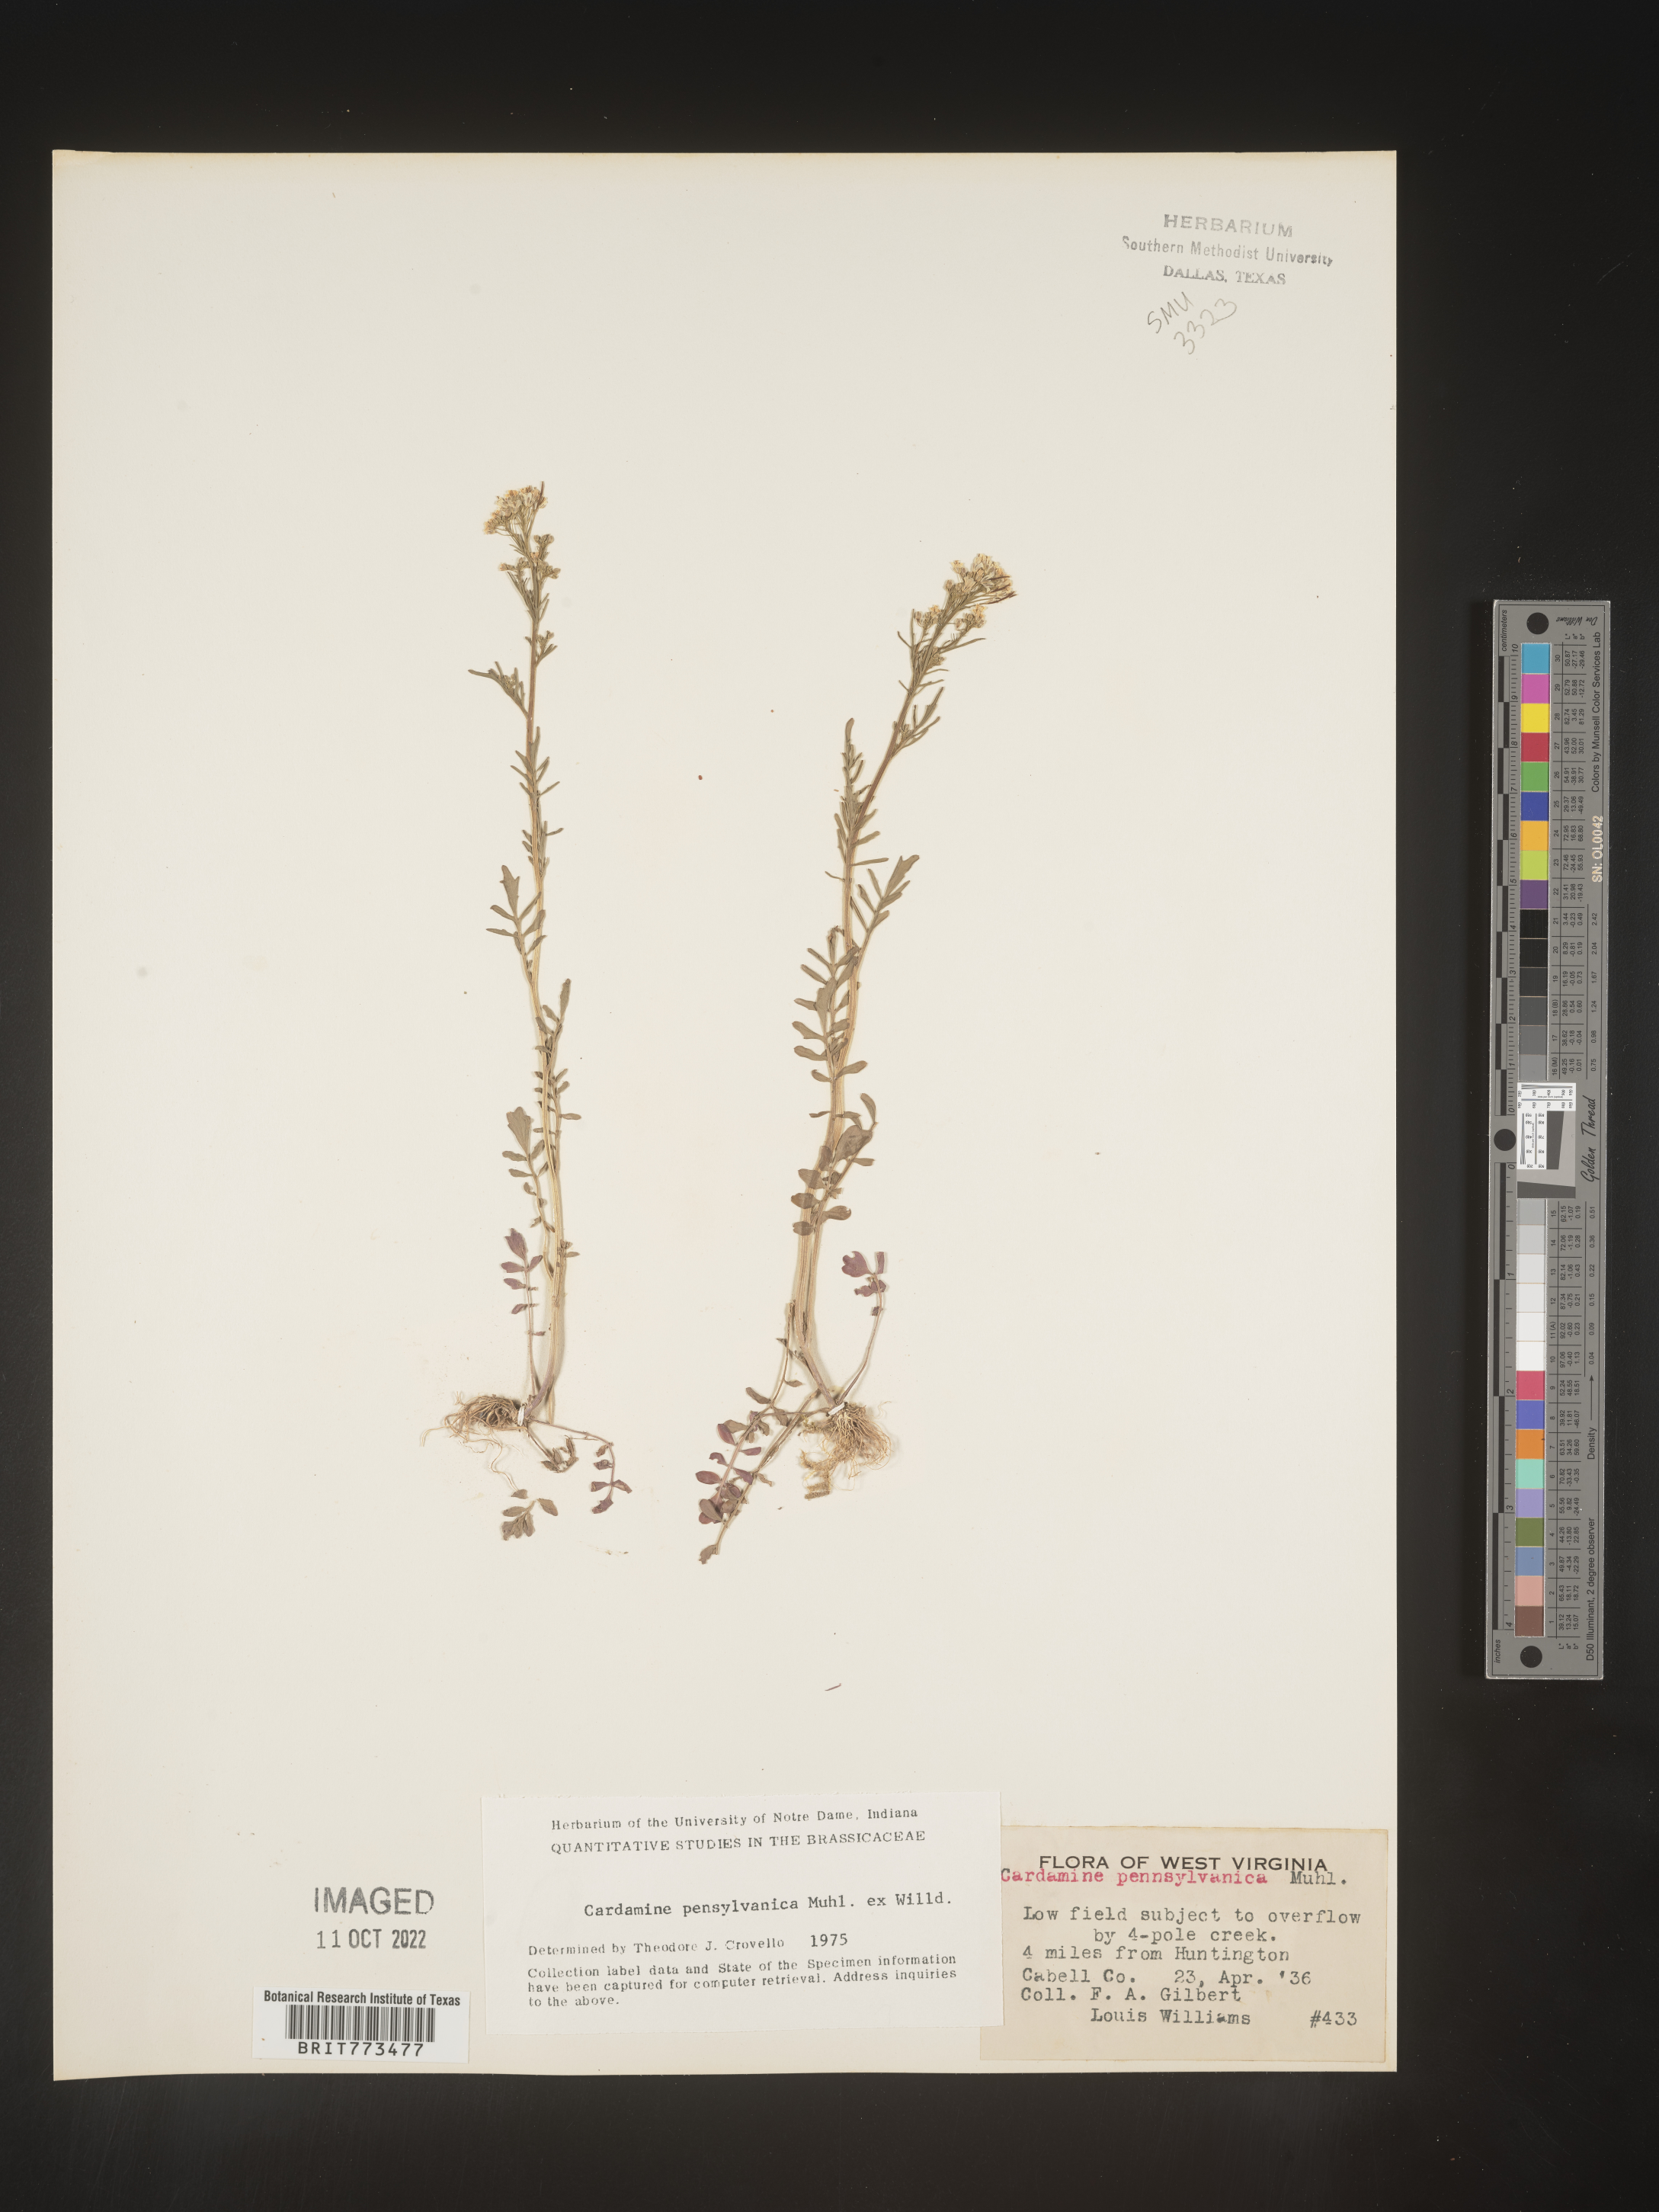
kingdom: Plantae
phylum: Tracheophyta
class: Magnoliopsida
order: Brassicales
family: Brassicaceae
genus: Cardamine
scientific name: Cardamine pensylvanica
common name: Pennsylvania bittercress
